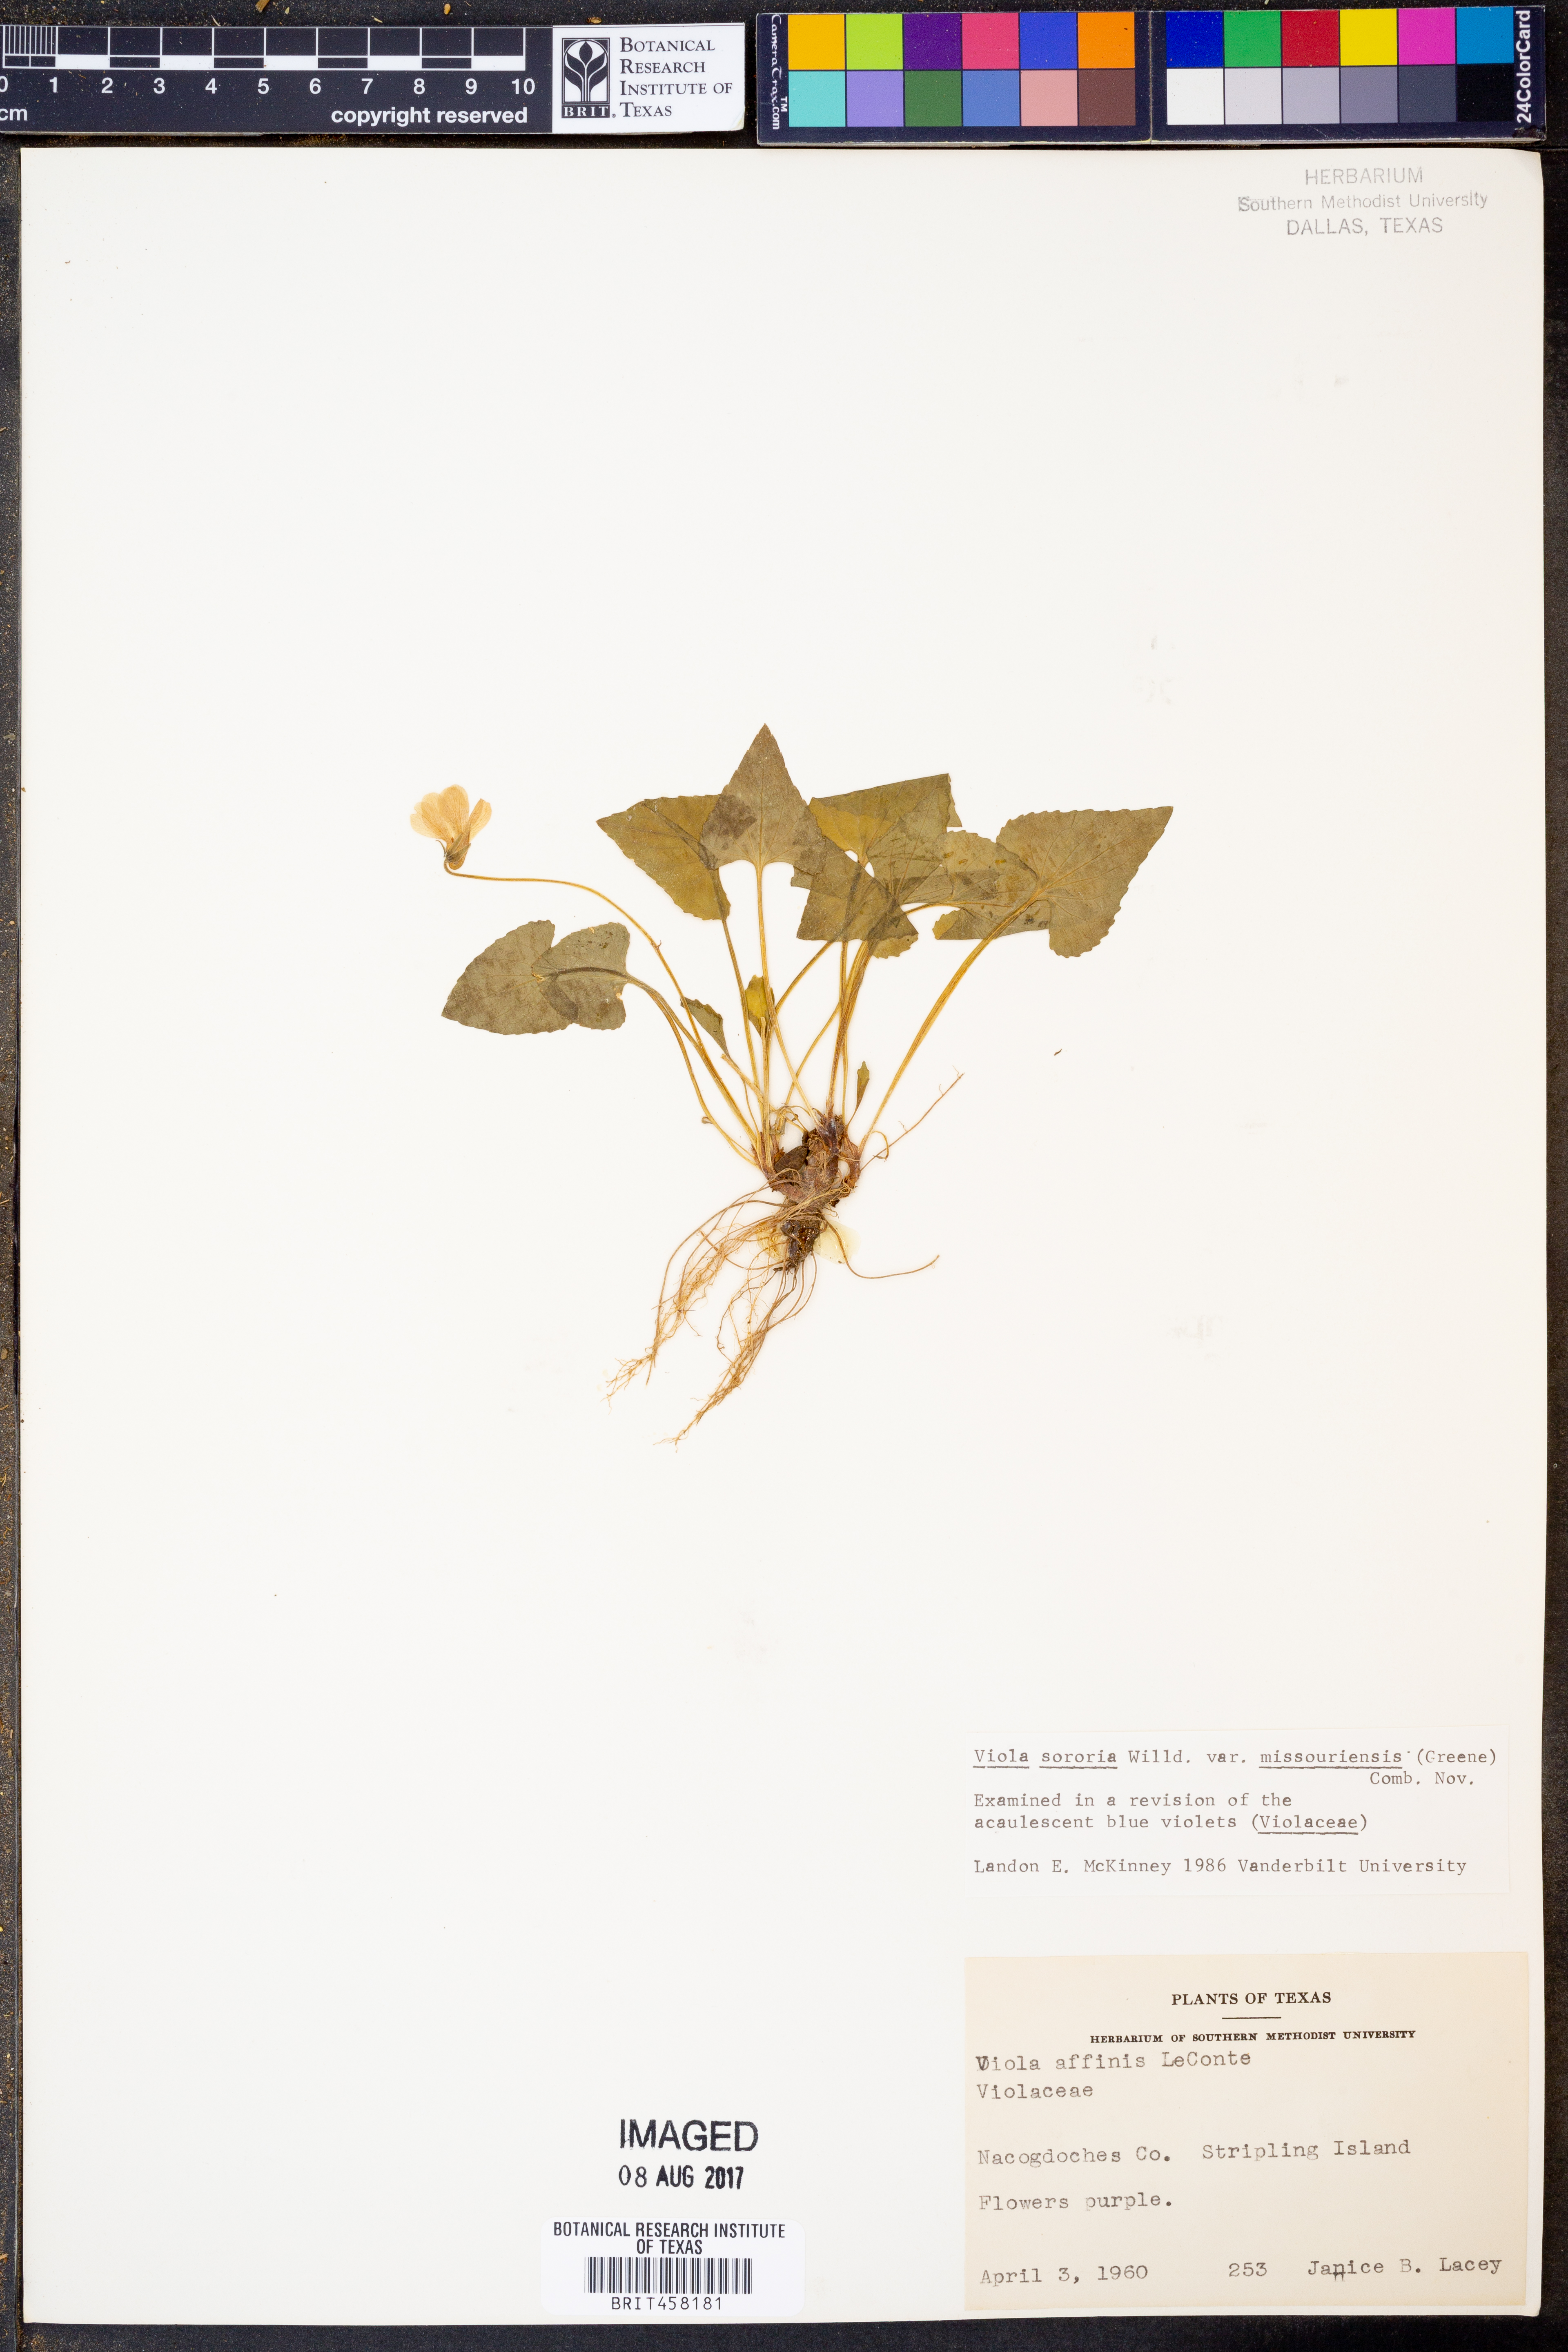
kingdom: Plantae
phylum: Tracheophyta
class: Magnoliopsida
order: Malpighiales
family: Violaceae
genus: Viola
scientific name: Viola missouriensis
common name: Missouri violet
